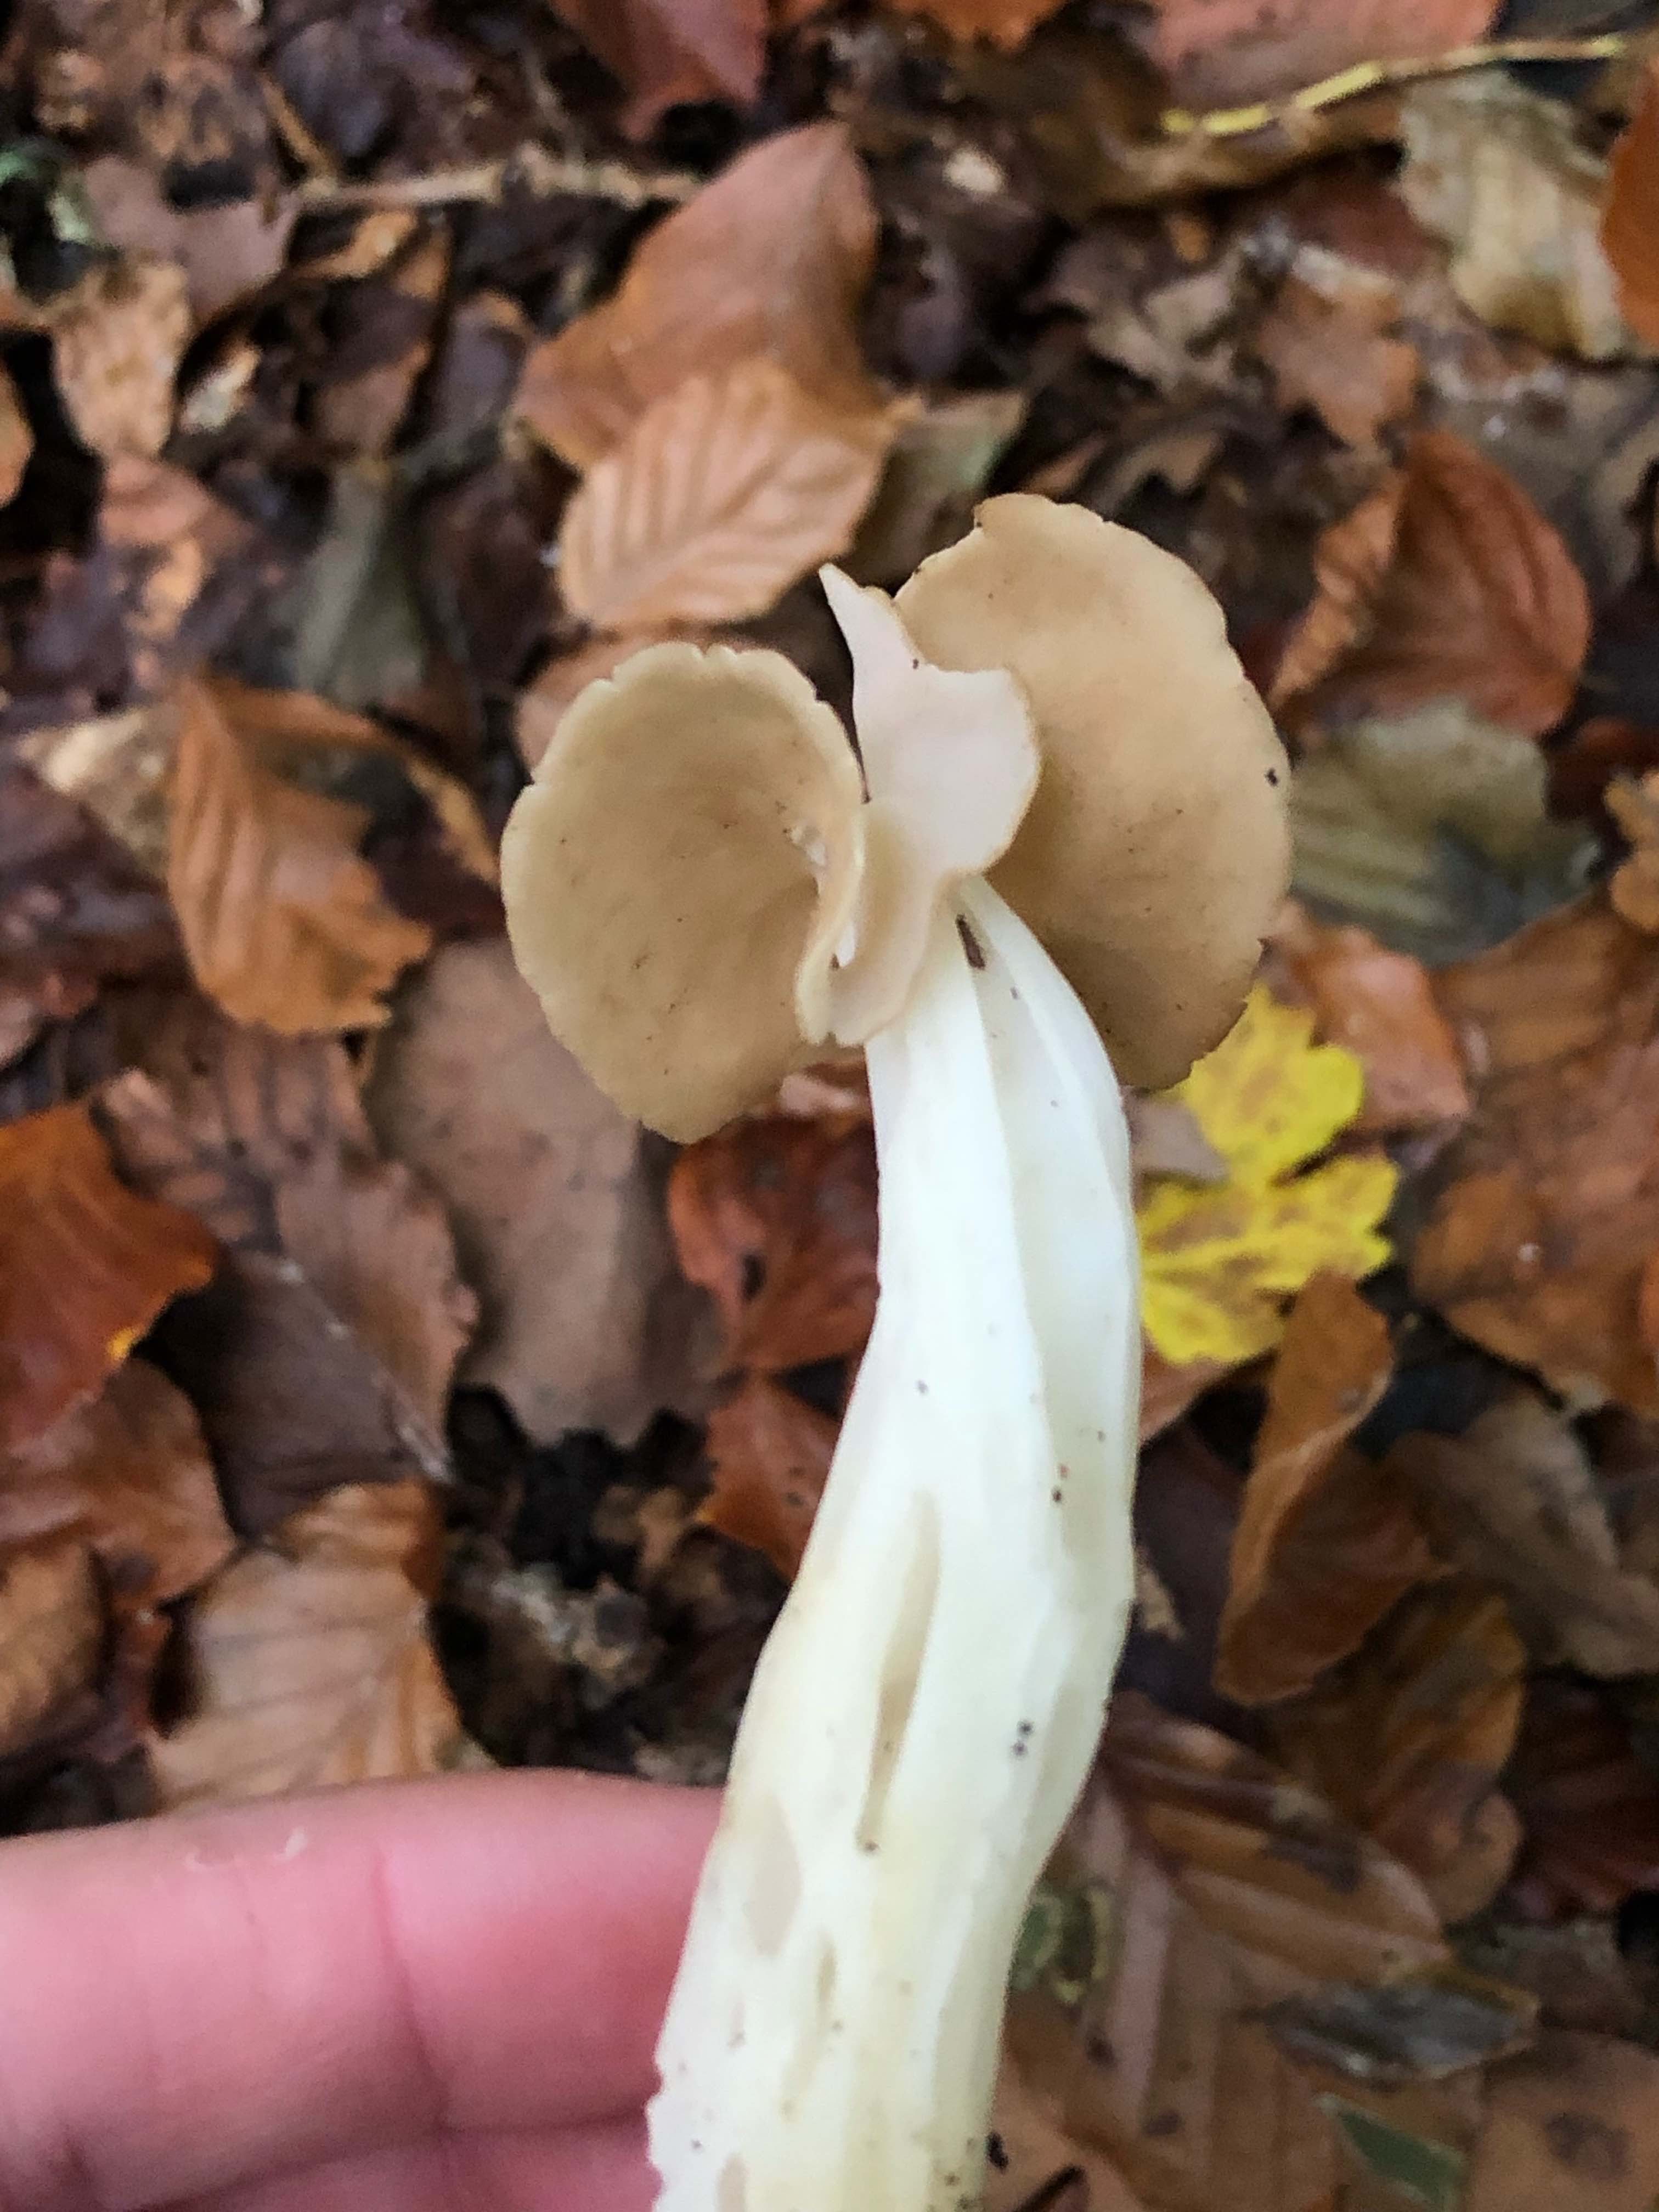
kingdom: Fungi
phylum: Ascomycota
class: Pezizomycetes
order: Pezizales
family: Helvellaceae
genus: Helvella
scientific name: Helvella crispa
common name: kruset foldhat
